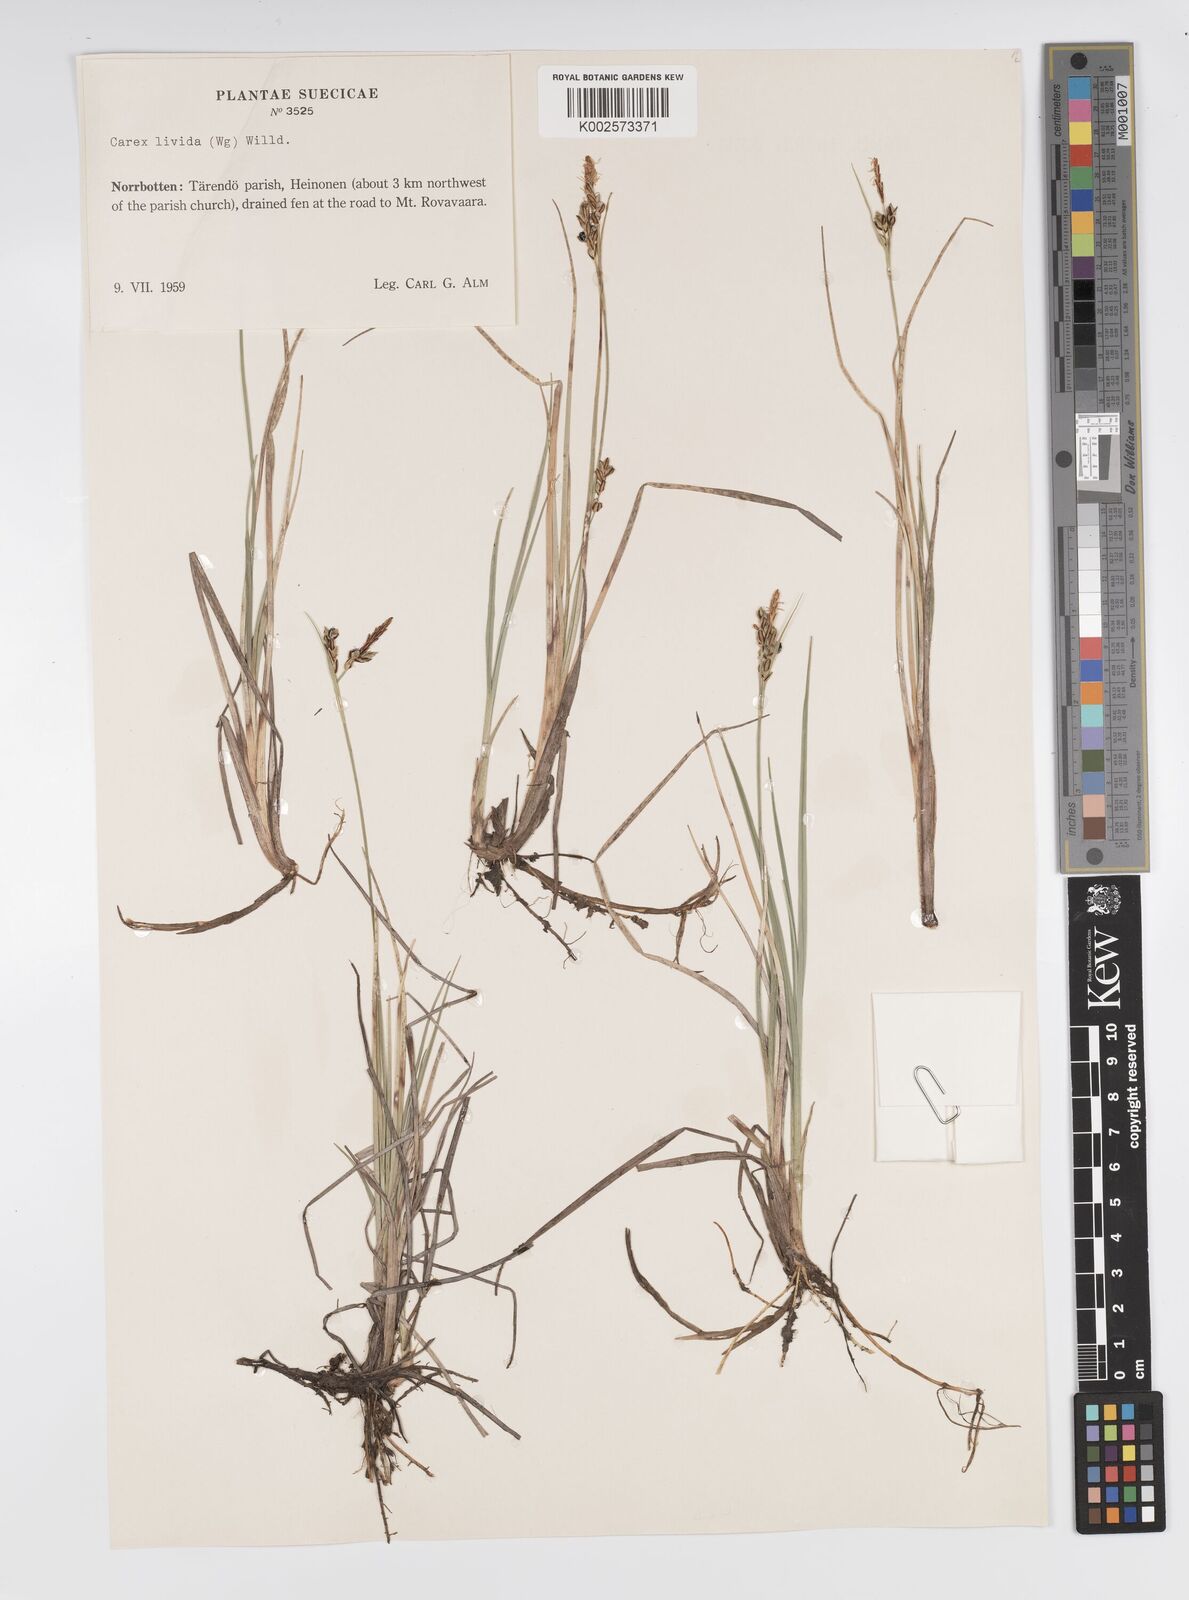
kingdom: Plantae
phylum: Tracheophyta
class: Liliopsida
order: Poales
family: Cyperaceae
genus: Carex
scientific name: Carex livida
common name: Livid sedge
